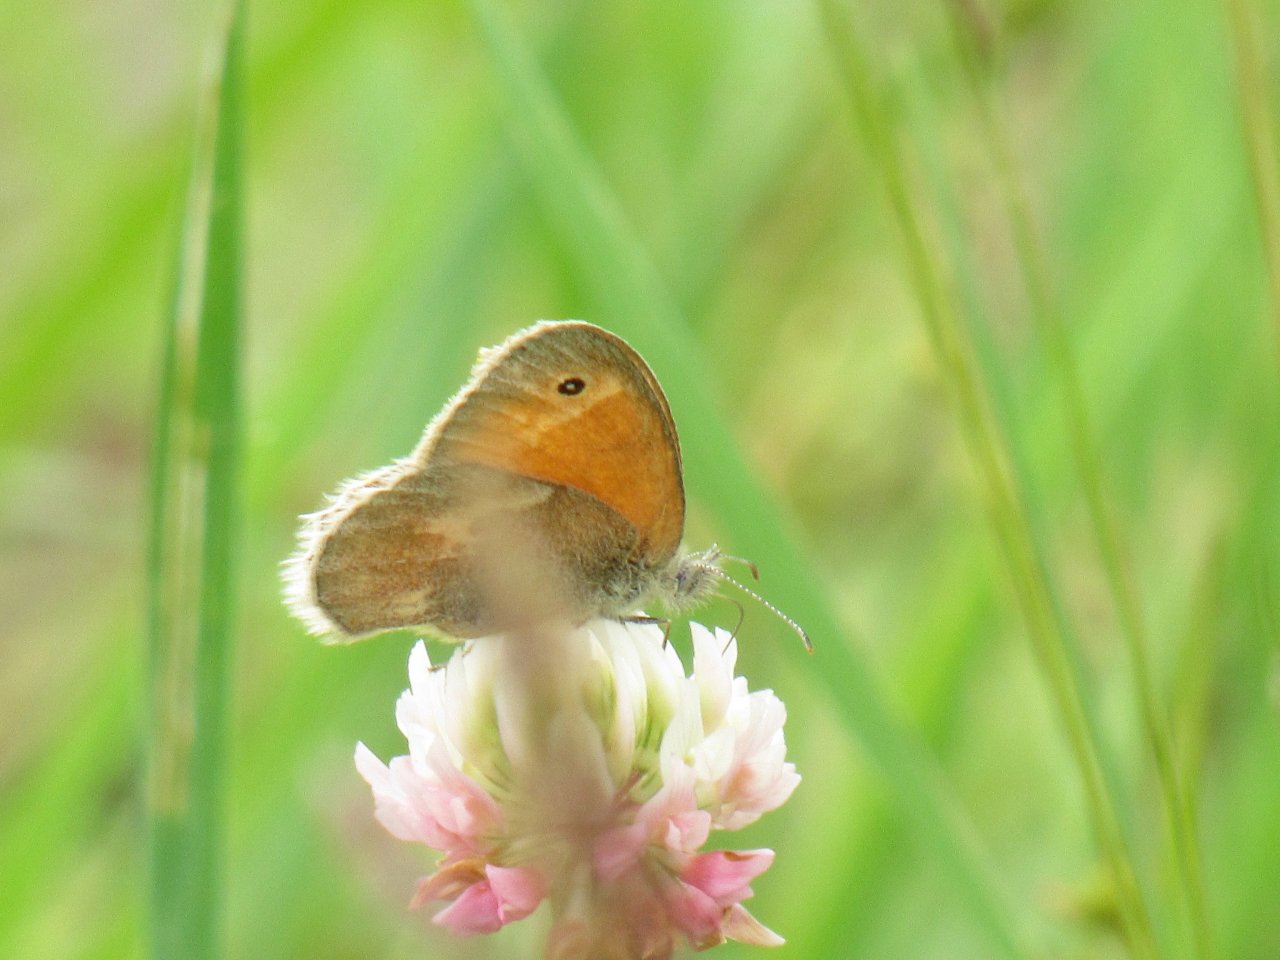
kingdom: Animalia
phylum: Arthropoda
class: Insecta
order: Lepidoptera
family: Nymphalidae
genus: Coenonympha
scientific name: Coenonympha tullia
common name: Large Heath
